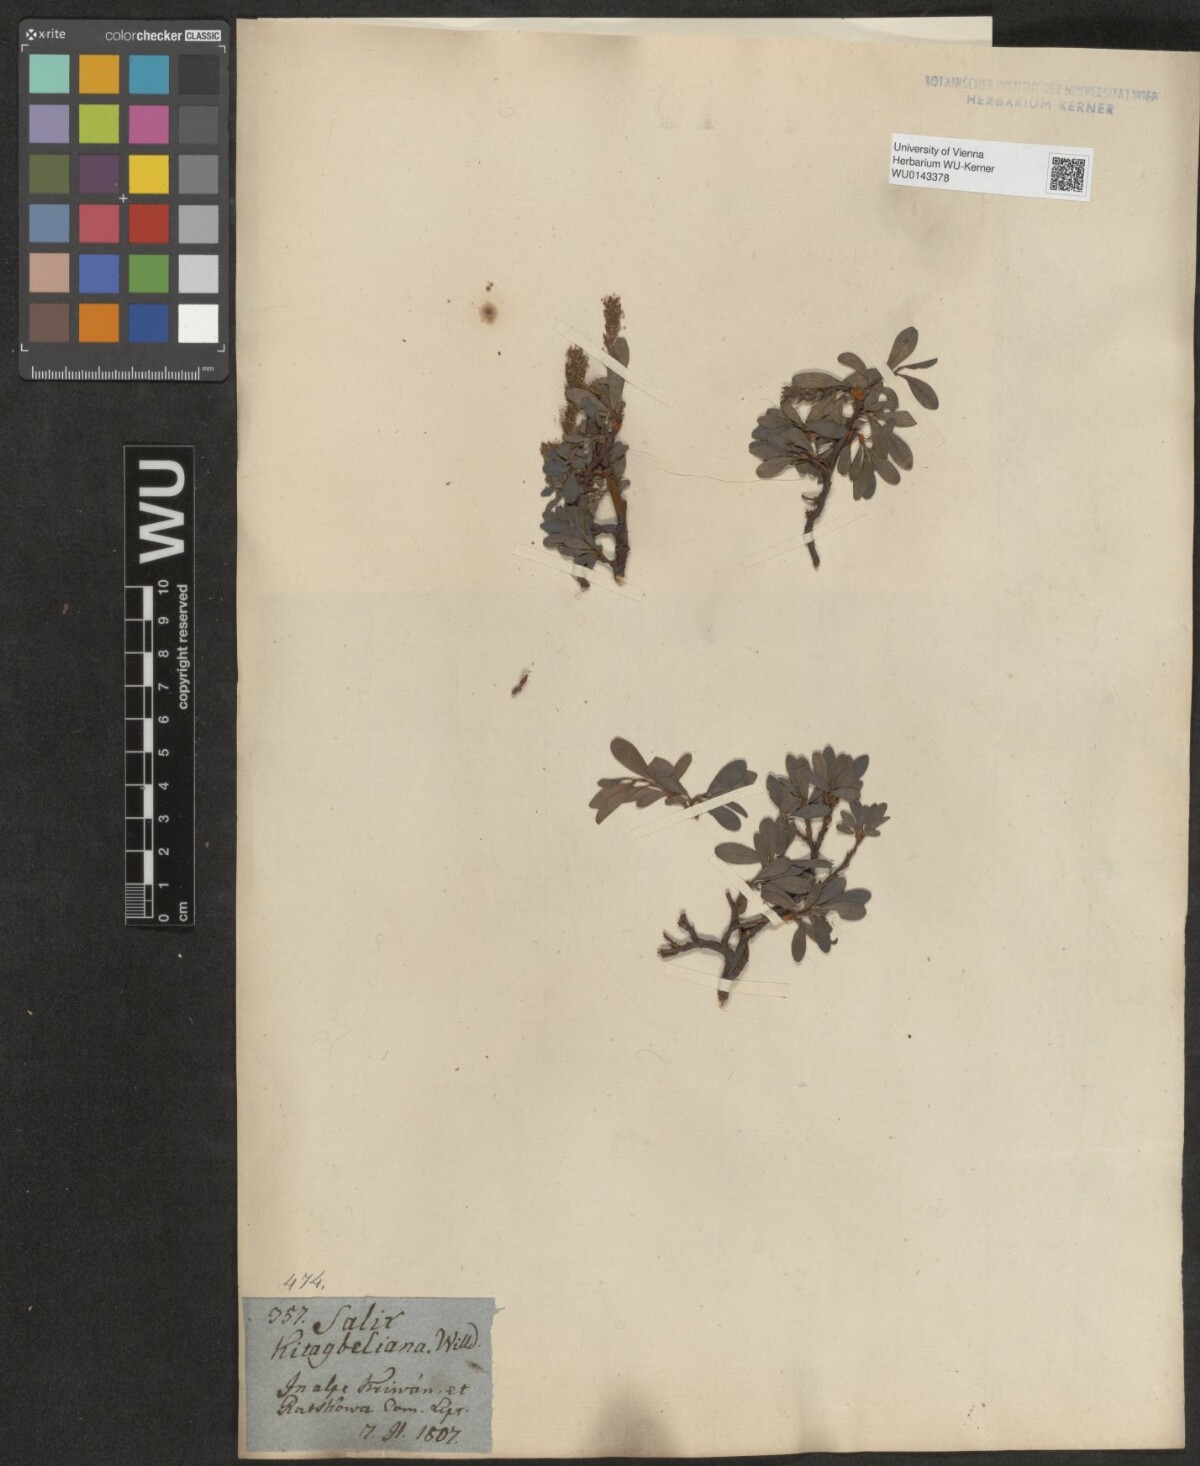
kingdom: Plantae
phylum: Tracheophyta
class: Magnoliopsida
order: Malpighiales
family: Salicaceae
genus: Salix
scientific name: Salix retusa
